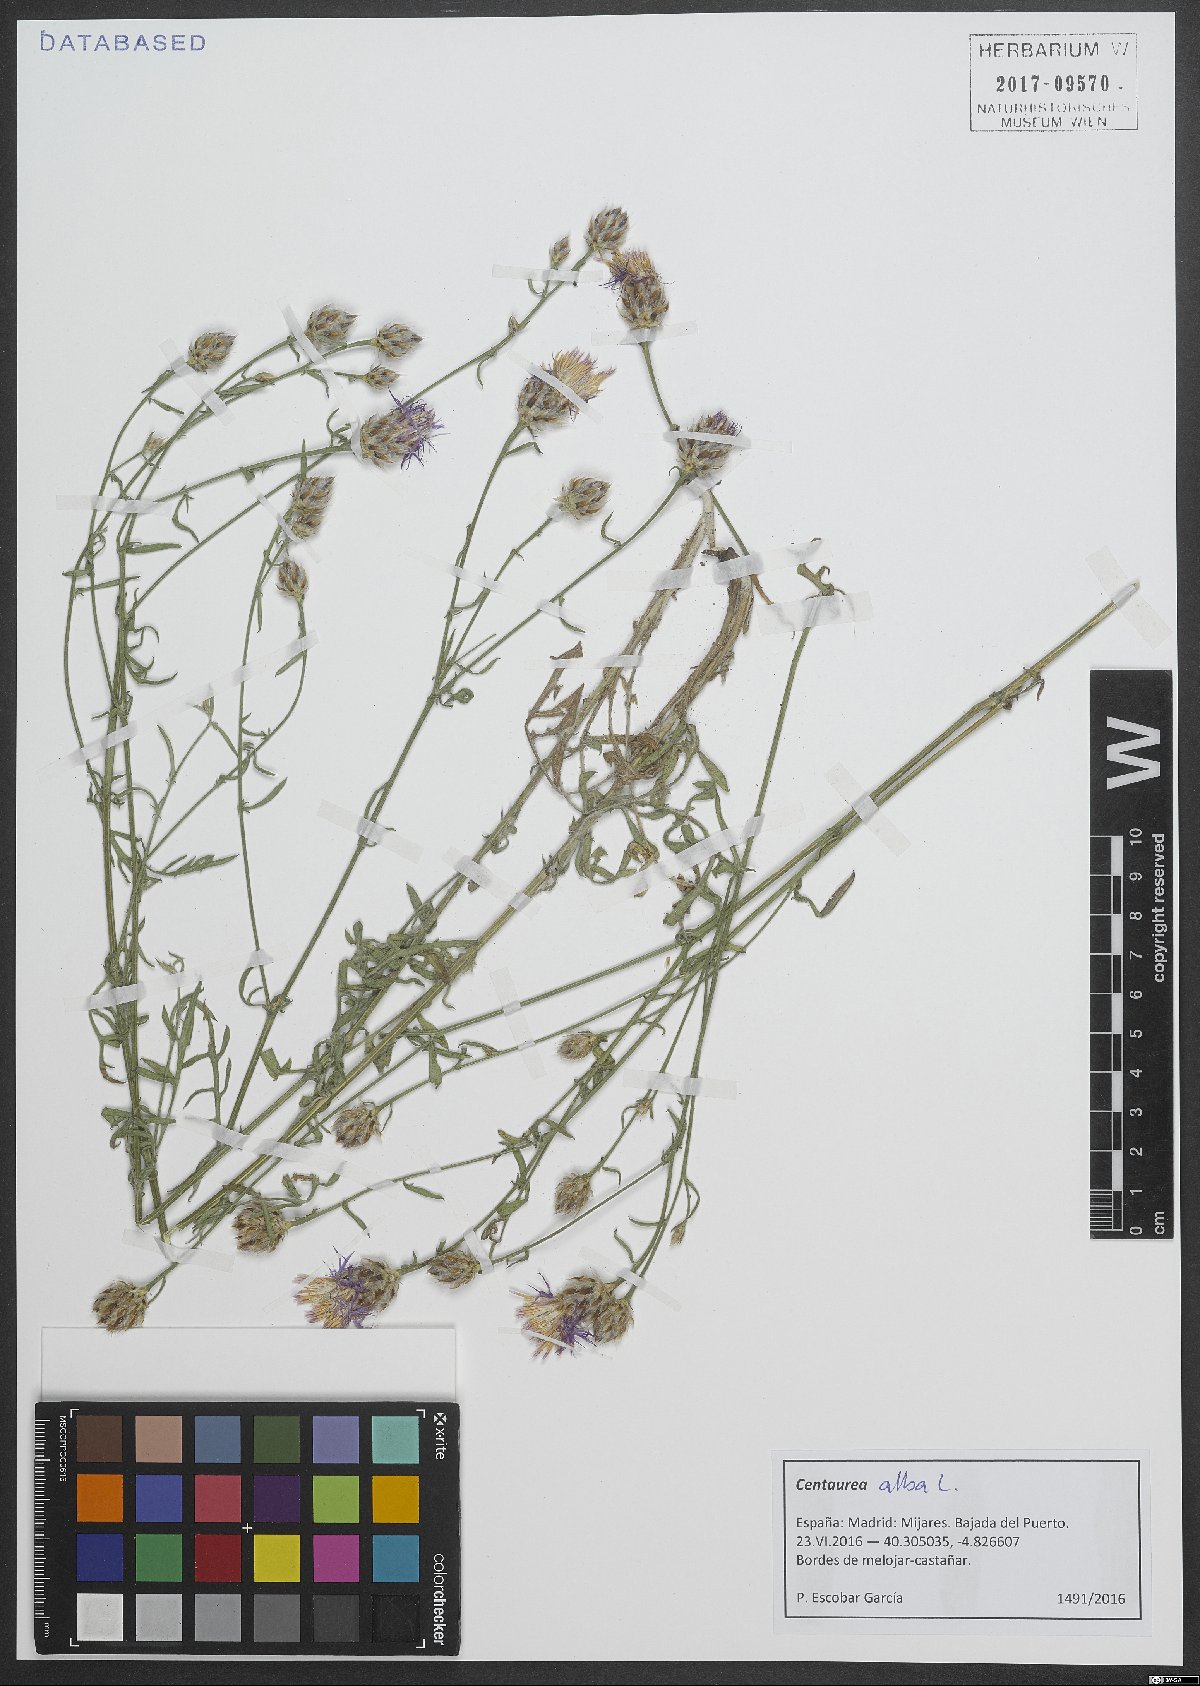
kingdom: Plantae
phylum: Tracheophyta
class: Magnoliopsida
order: Asterales
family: Asteraceae
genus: Centaurea
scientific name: Centaurea alba
